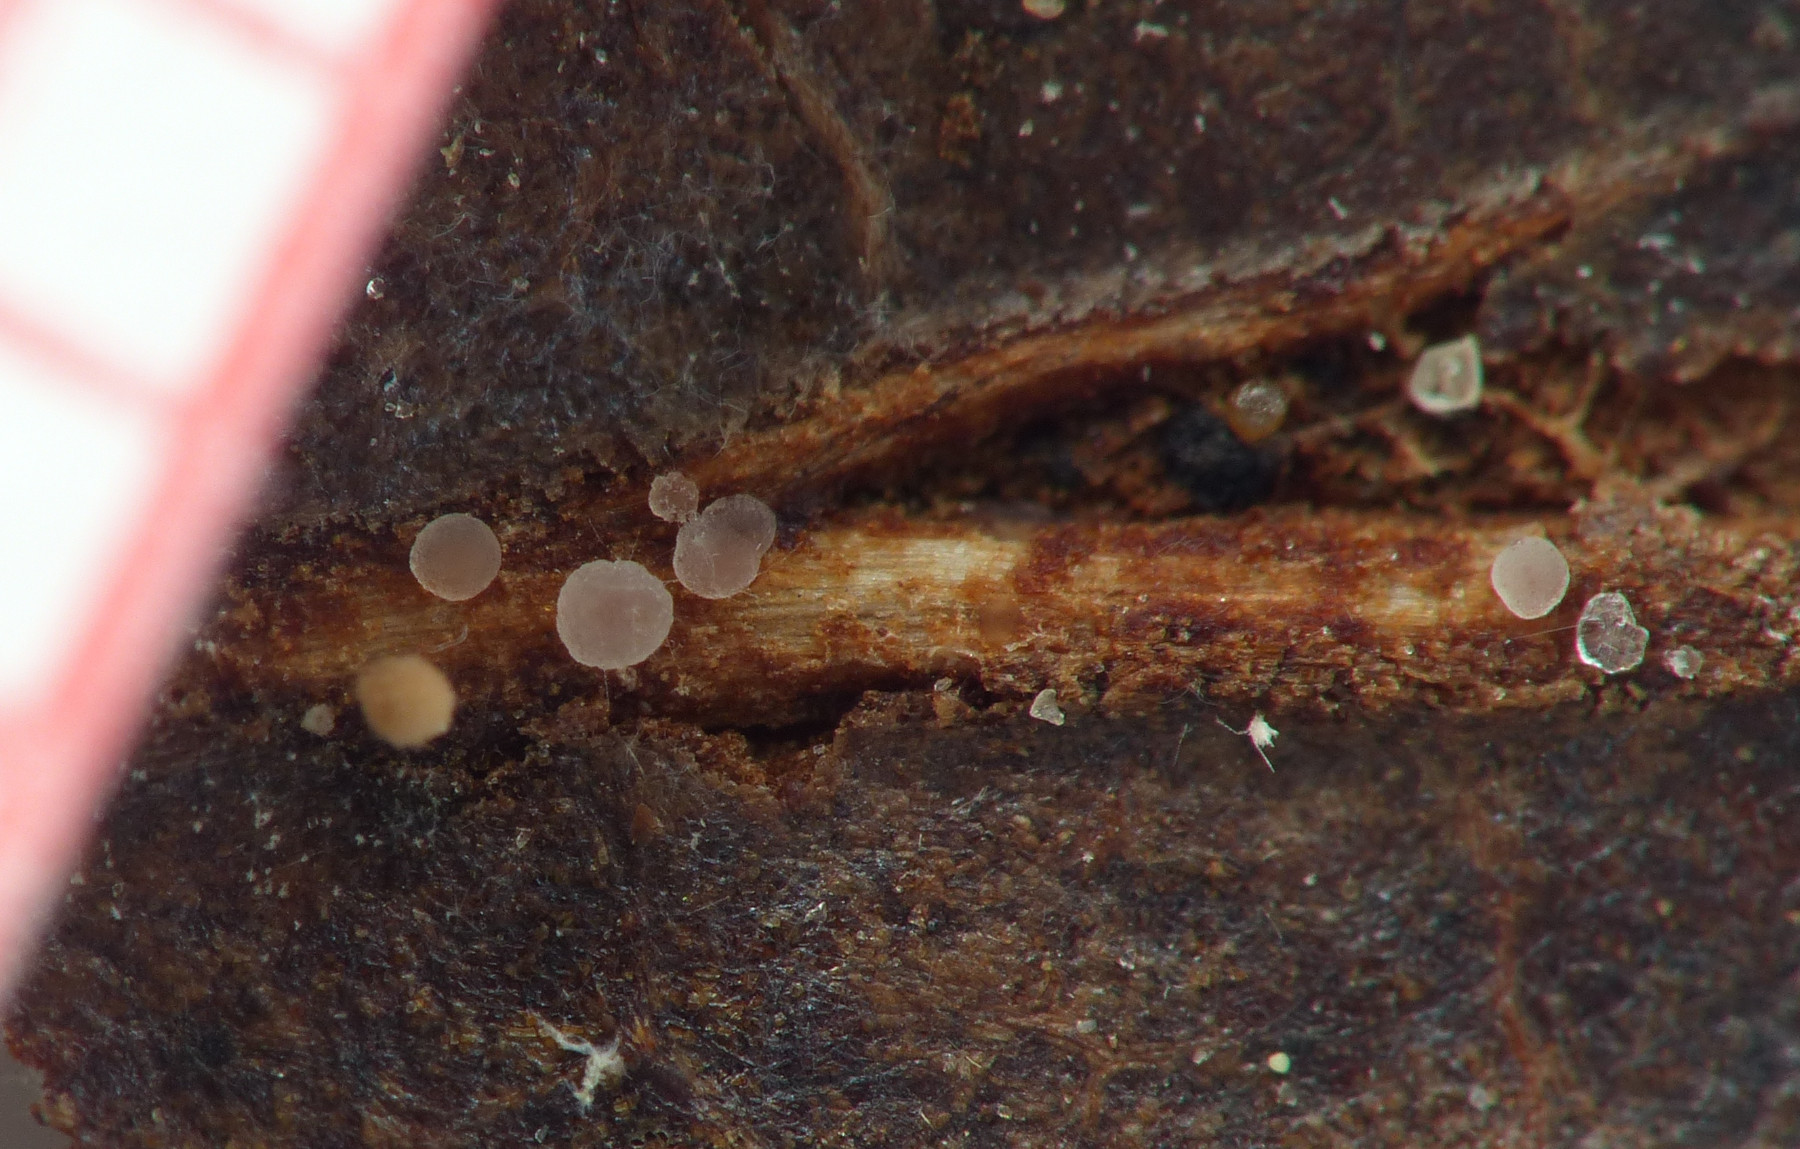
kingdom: Fungi
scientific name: Fungi
